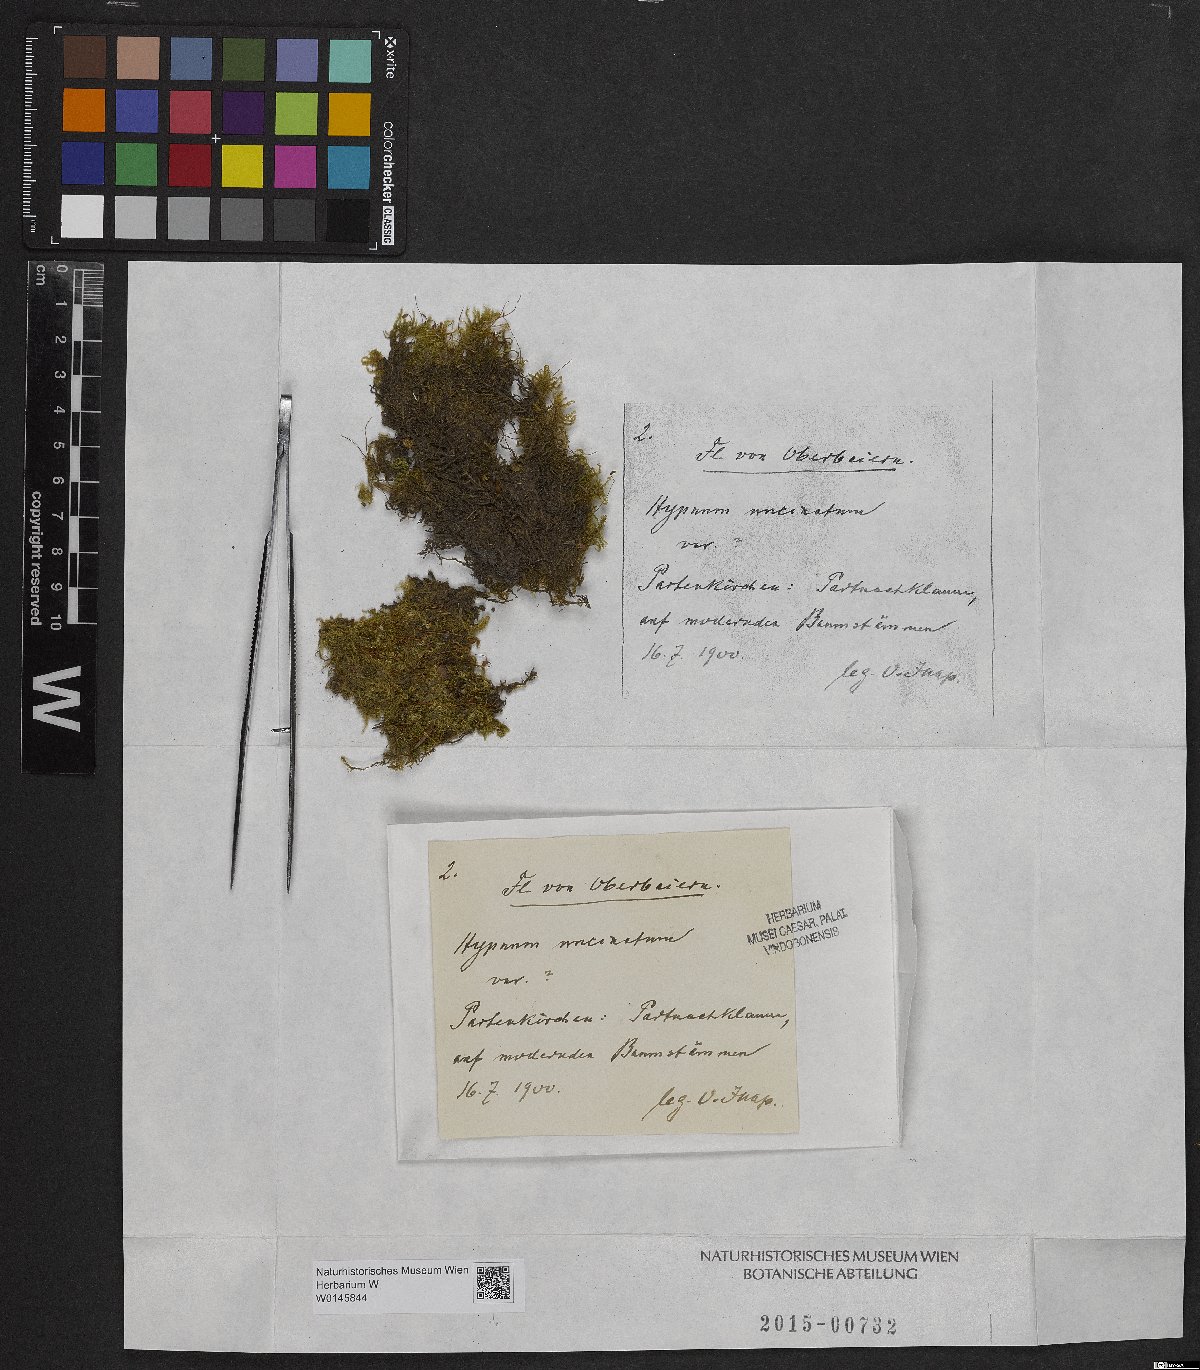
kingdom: Plantae
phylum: Bryophyta
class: Bryopsida
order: Hypnales
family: Scorpidiaceae
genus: Sanionia
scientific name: Sanionia uncinata
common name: Sickle moss
